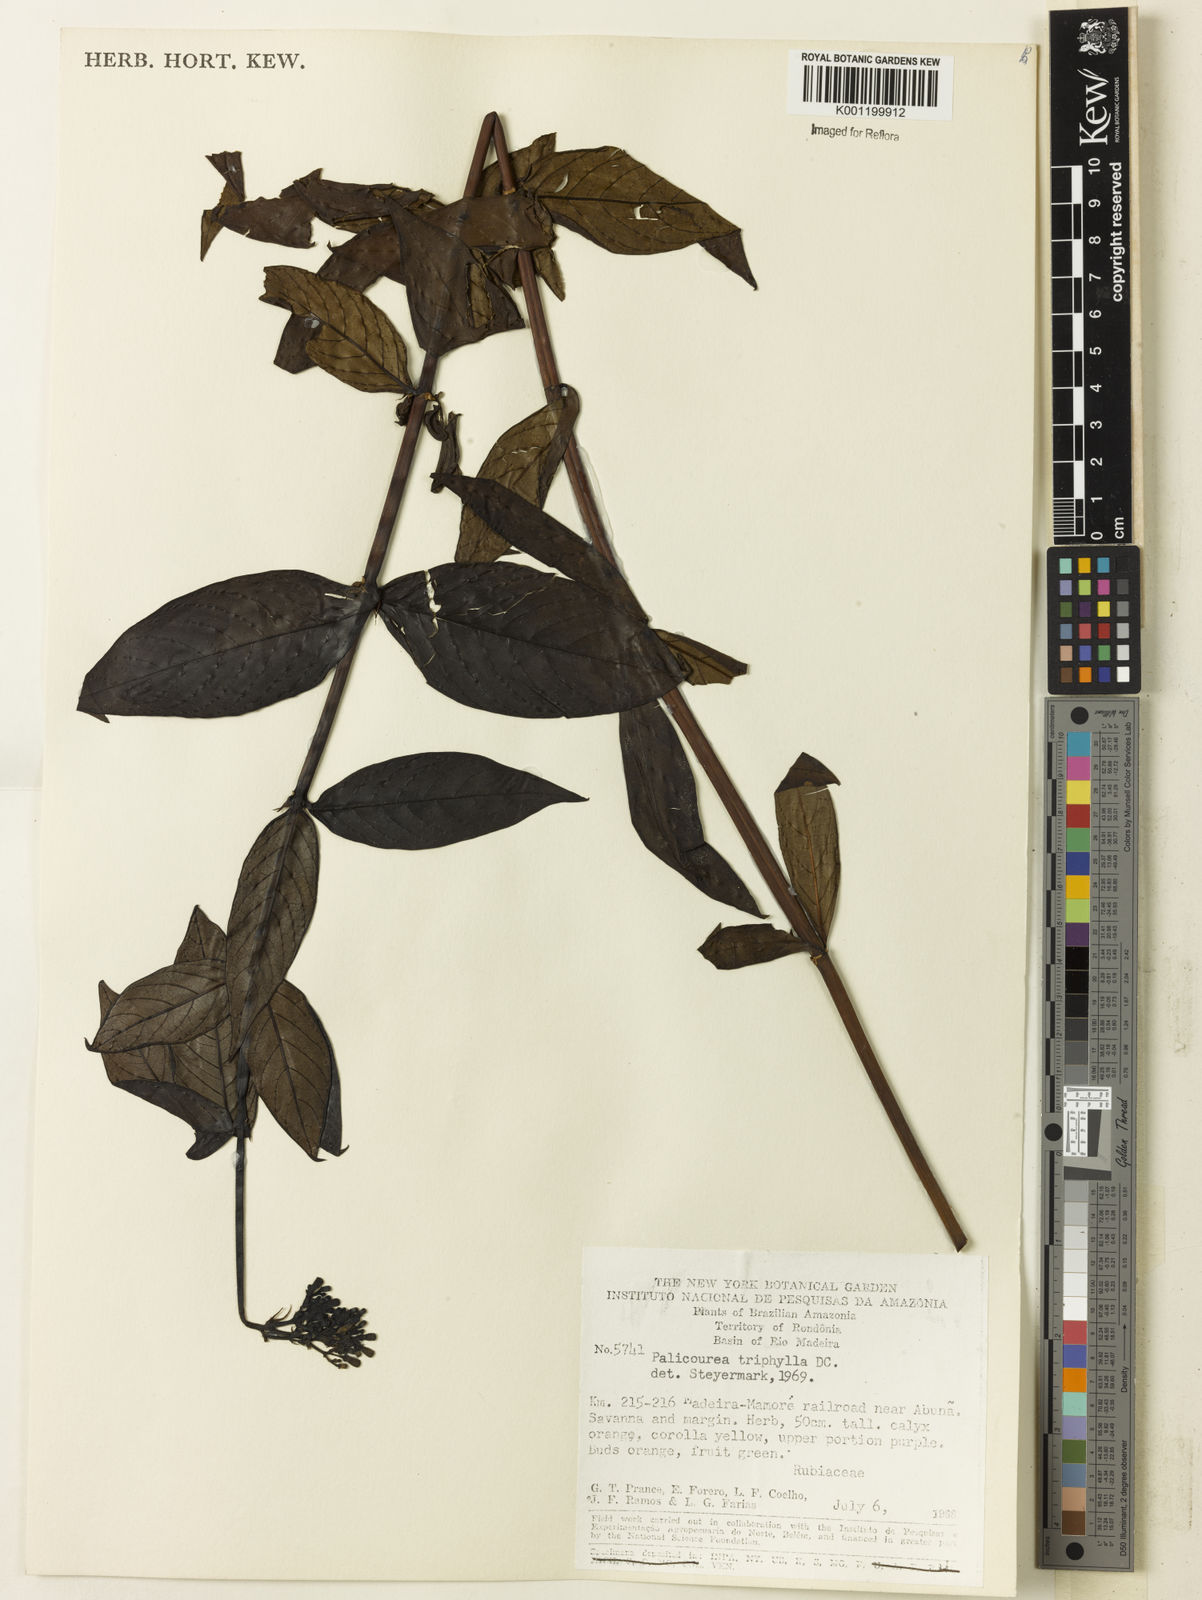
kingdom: Plantae
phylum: Tracheophyta
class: Magnoliopsida
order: Gentianales
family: Rubiaceae
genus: Palicourea
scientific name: Palicourea triphylla
